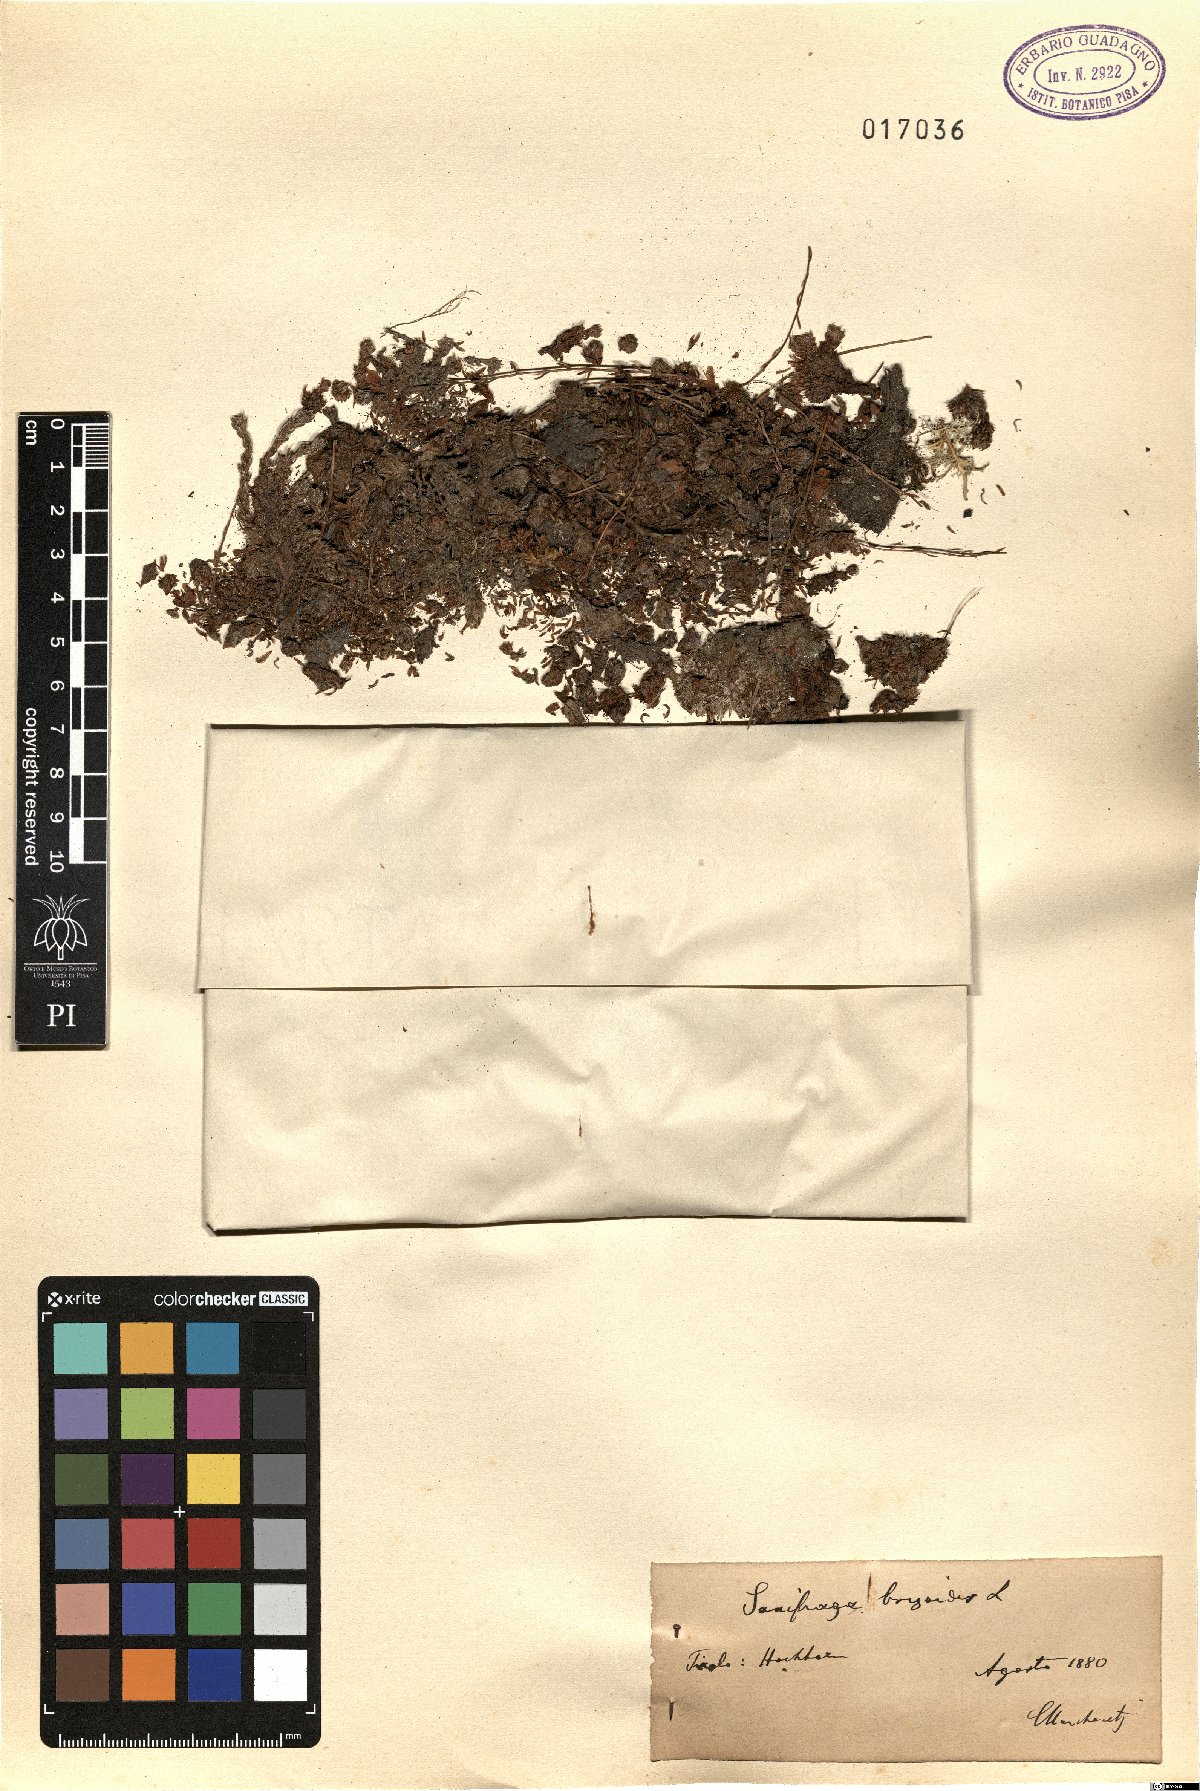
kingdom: Plantae
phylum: Tracheophyta
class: Magnoliopsida
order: Saxifragales
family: Saxifragaceae
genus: Saxifraga
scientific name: Saxifraga bryoides
